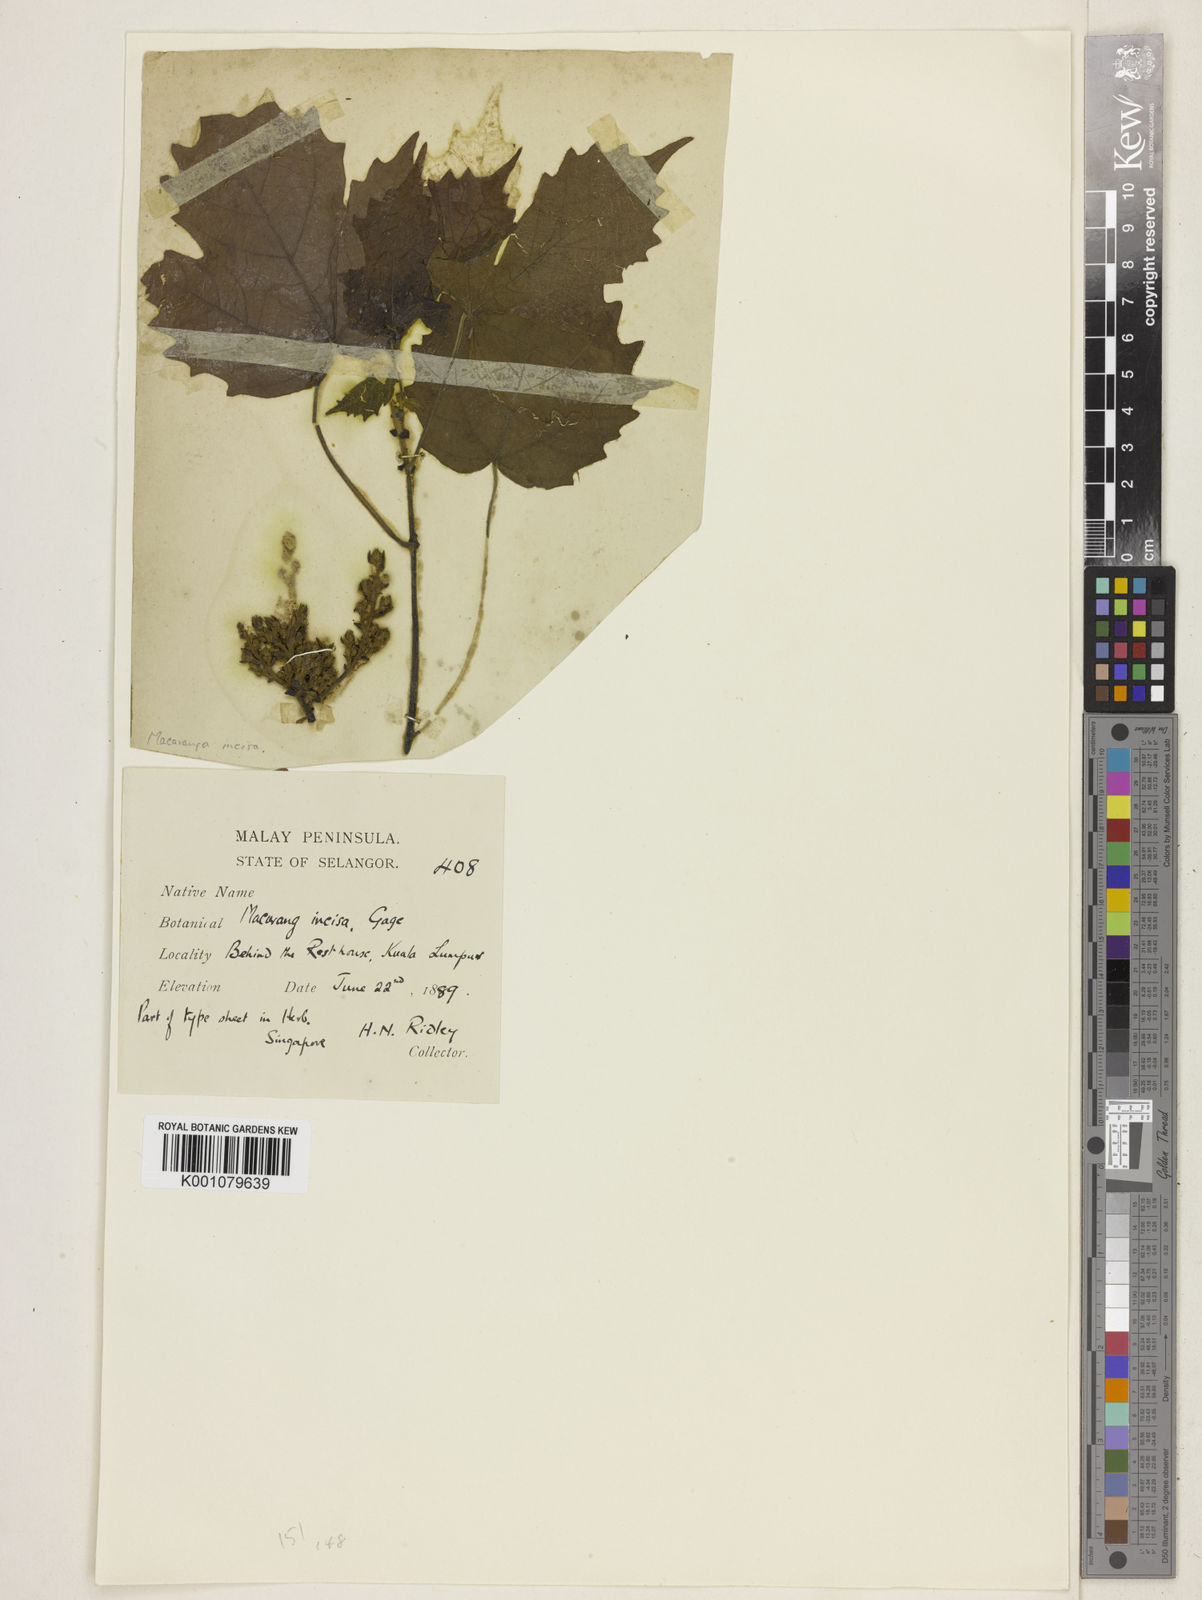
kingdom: Plantae
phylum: Tracheophyta
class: Magnoliopsida
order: Malpighiales
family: Euphorbiaceae
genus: Macaranga
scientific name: Macaranga
